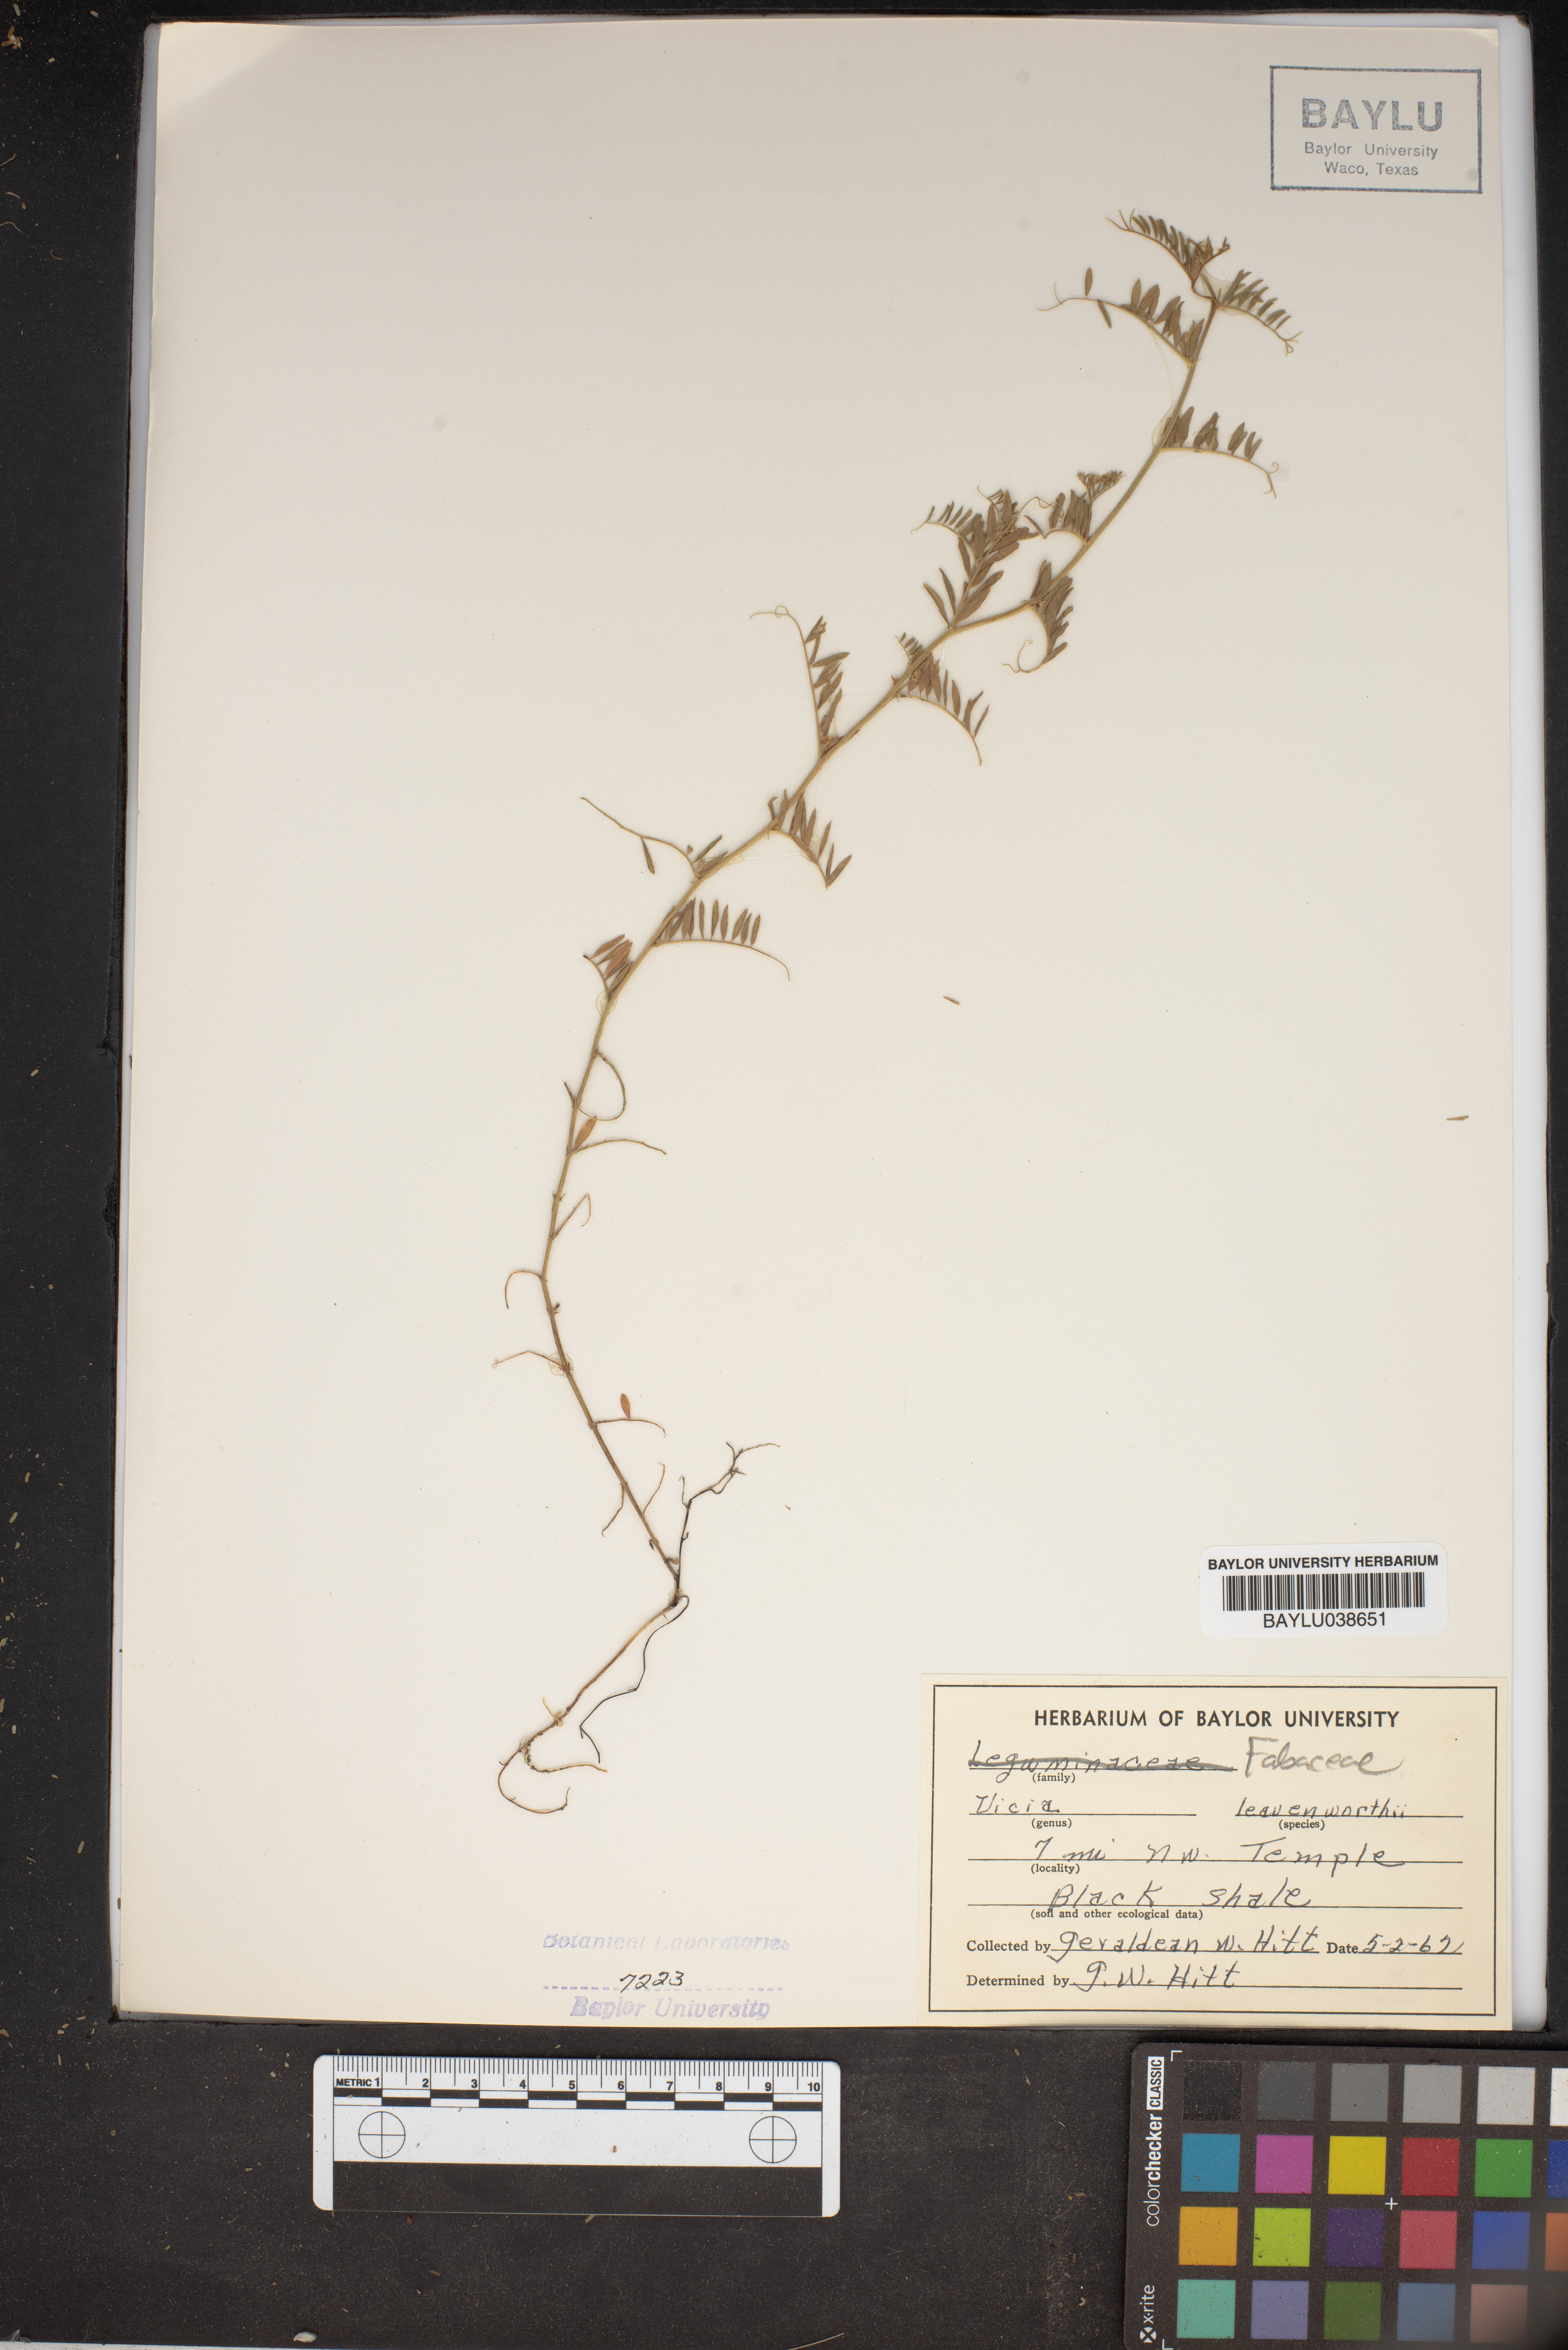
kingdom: Plantae
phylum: Tracheophyta
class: Magnoliopsida
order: Fabales
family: Fabaceae
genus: Vicia
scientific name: Vicia ludoviciana
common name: Louisiana vetch
